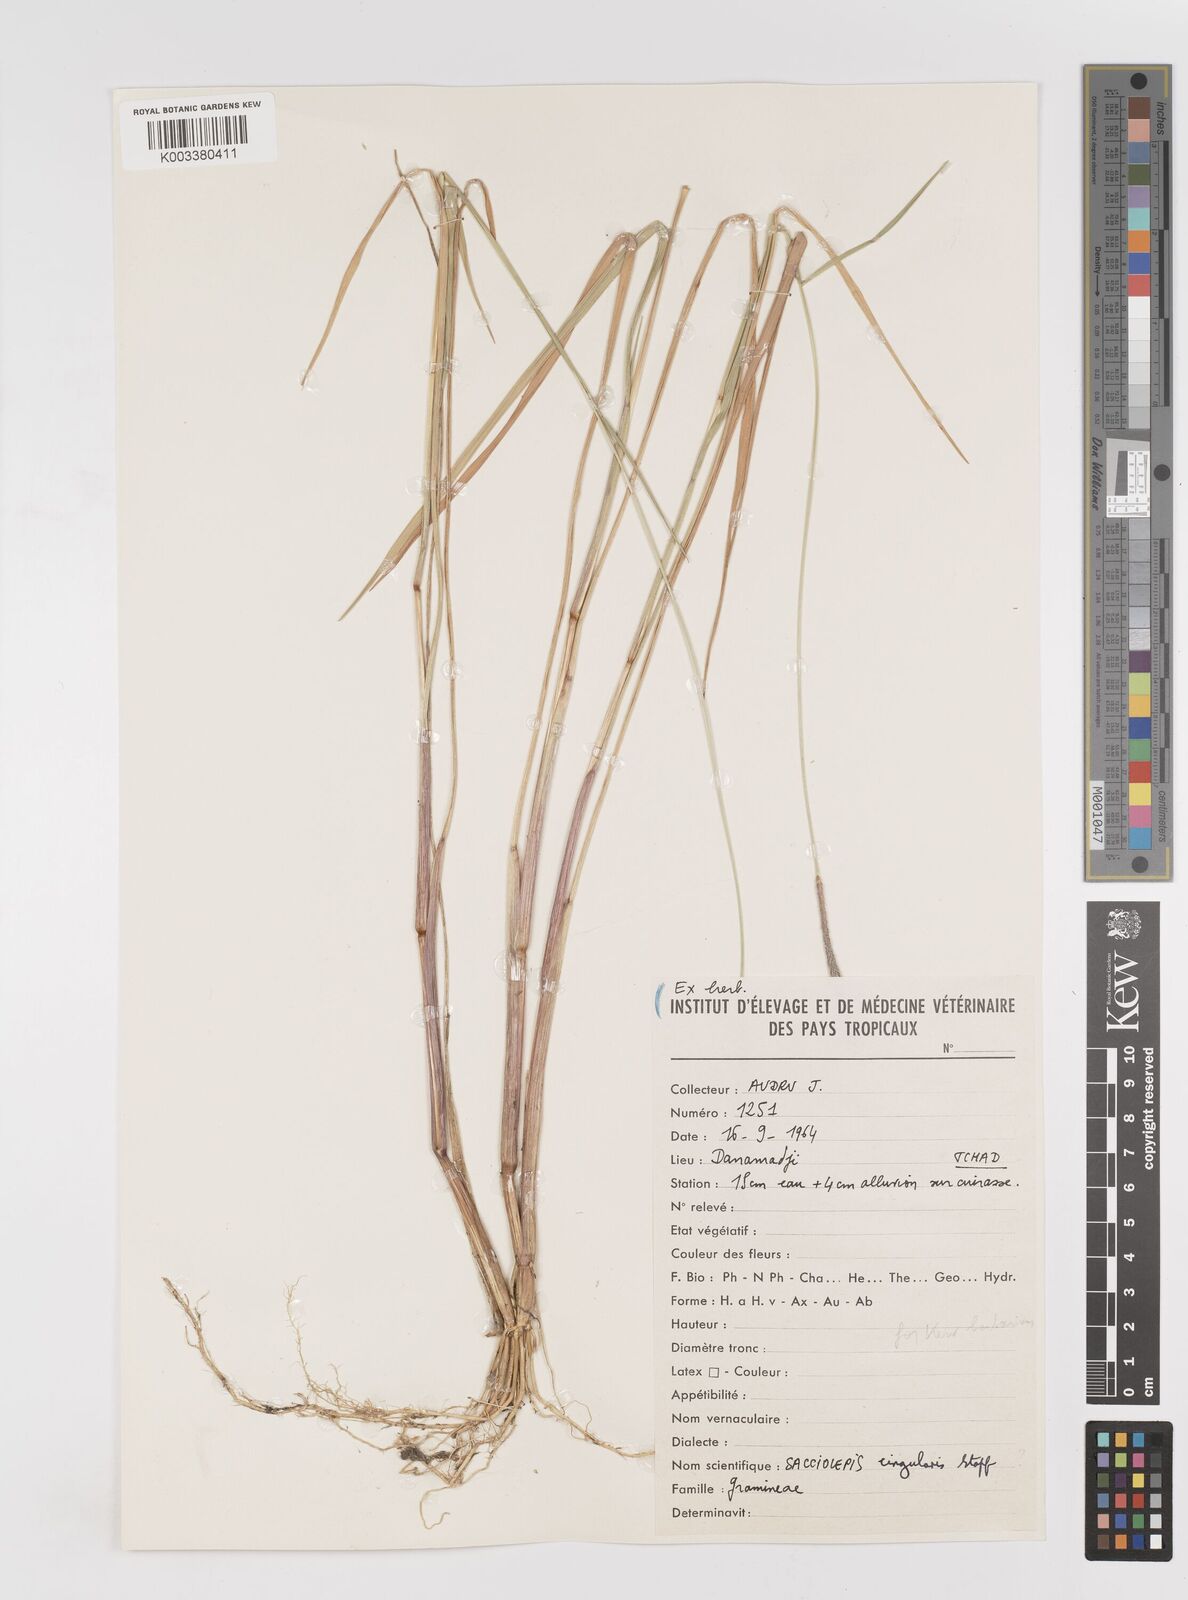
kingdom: Plantae
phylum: Tracheophyta
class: Liliopsida
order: Poales
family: Poaceae
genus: Sacciolepis
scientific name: Sacciolepis cingularis
